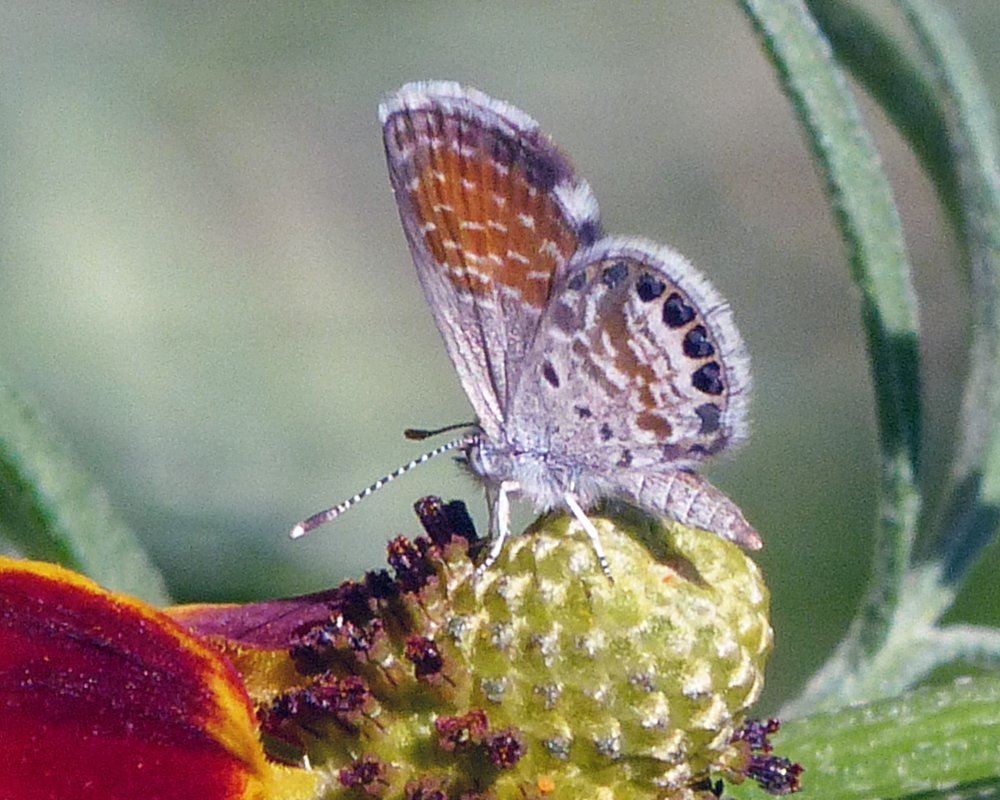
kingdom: Animalia
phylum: Arthropoda
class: Insecta
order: Lepidoptera
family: Lycaenidae
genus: Brephidium
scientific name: Brephidium exilis
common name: Western Pygmy-Blue
